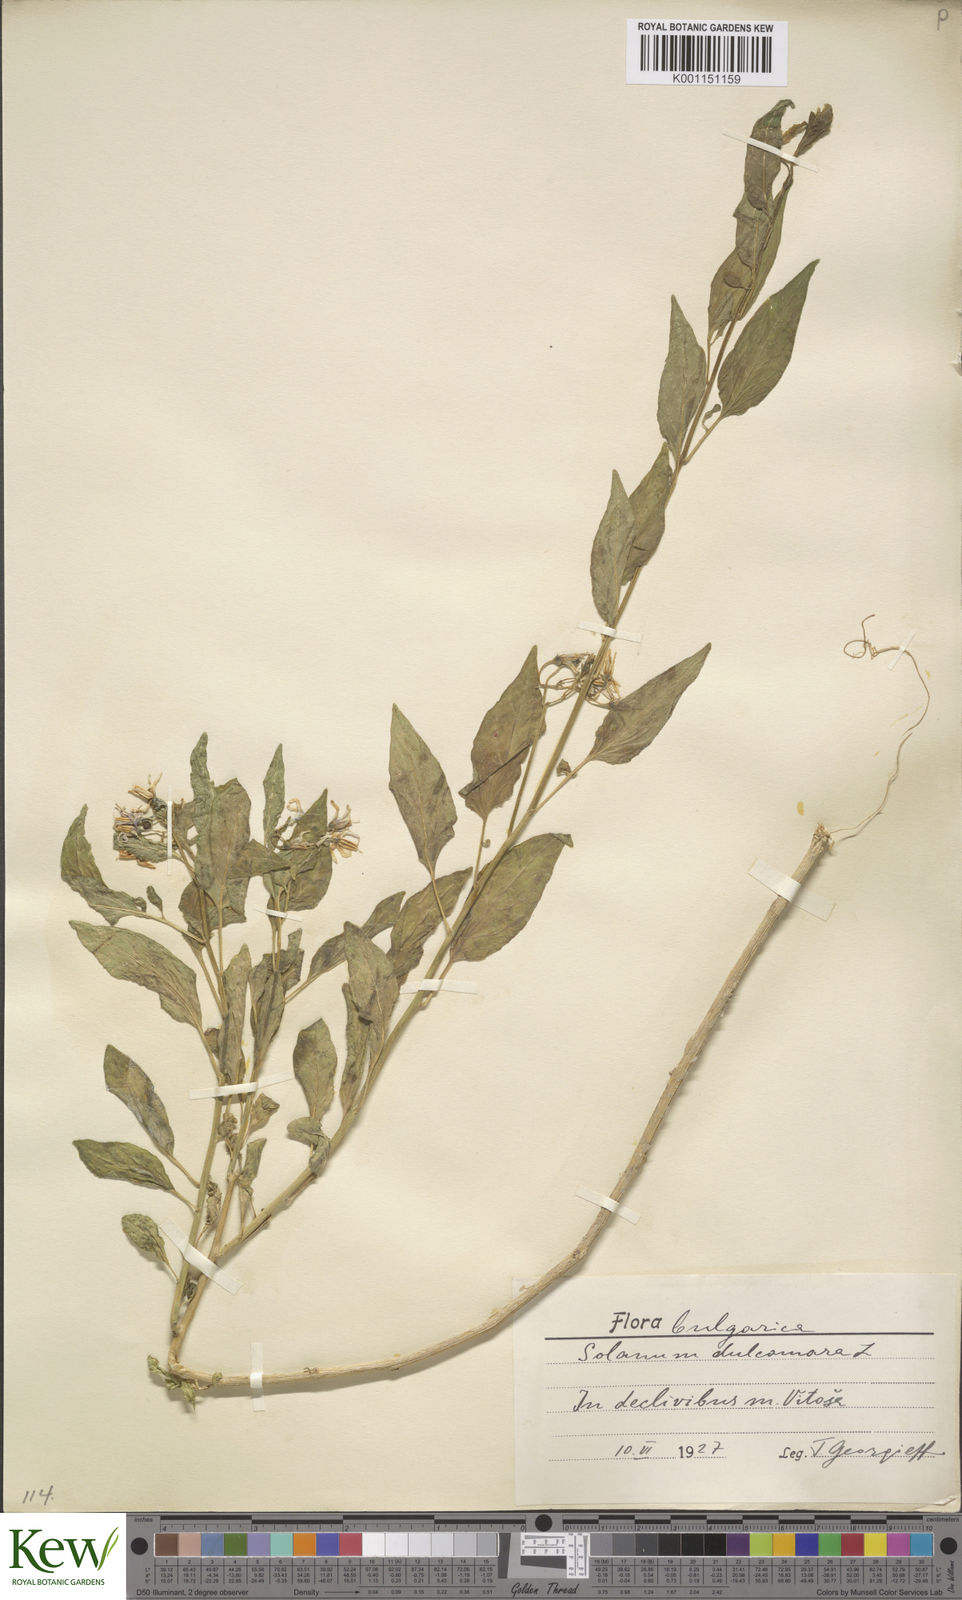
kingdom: Plantae
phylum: Tracheophyta
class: Magnoliopsida
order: Solanales
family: Solanaceae
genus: Solanum
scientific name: Solanum dulcamara
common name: Climbing nightshade
